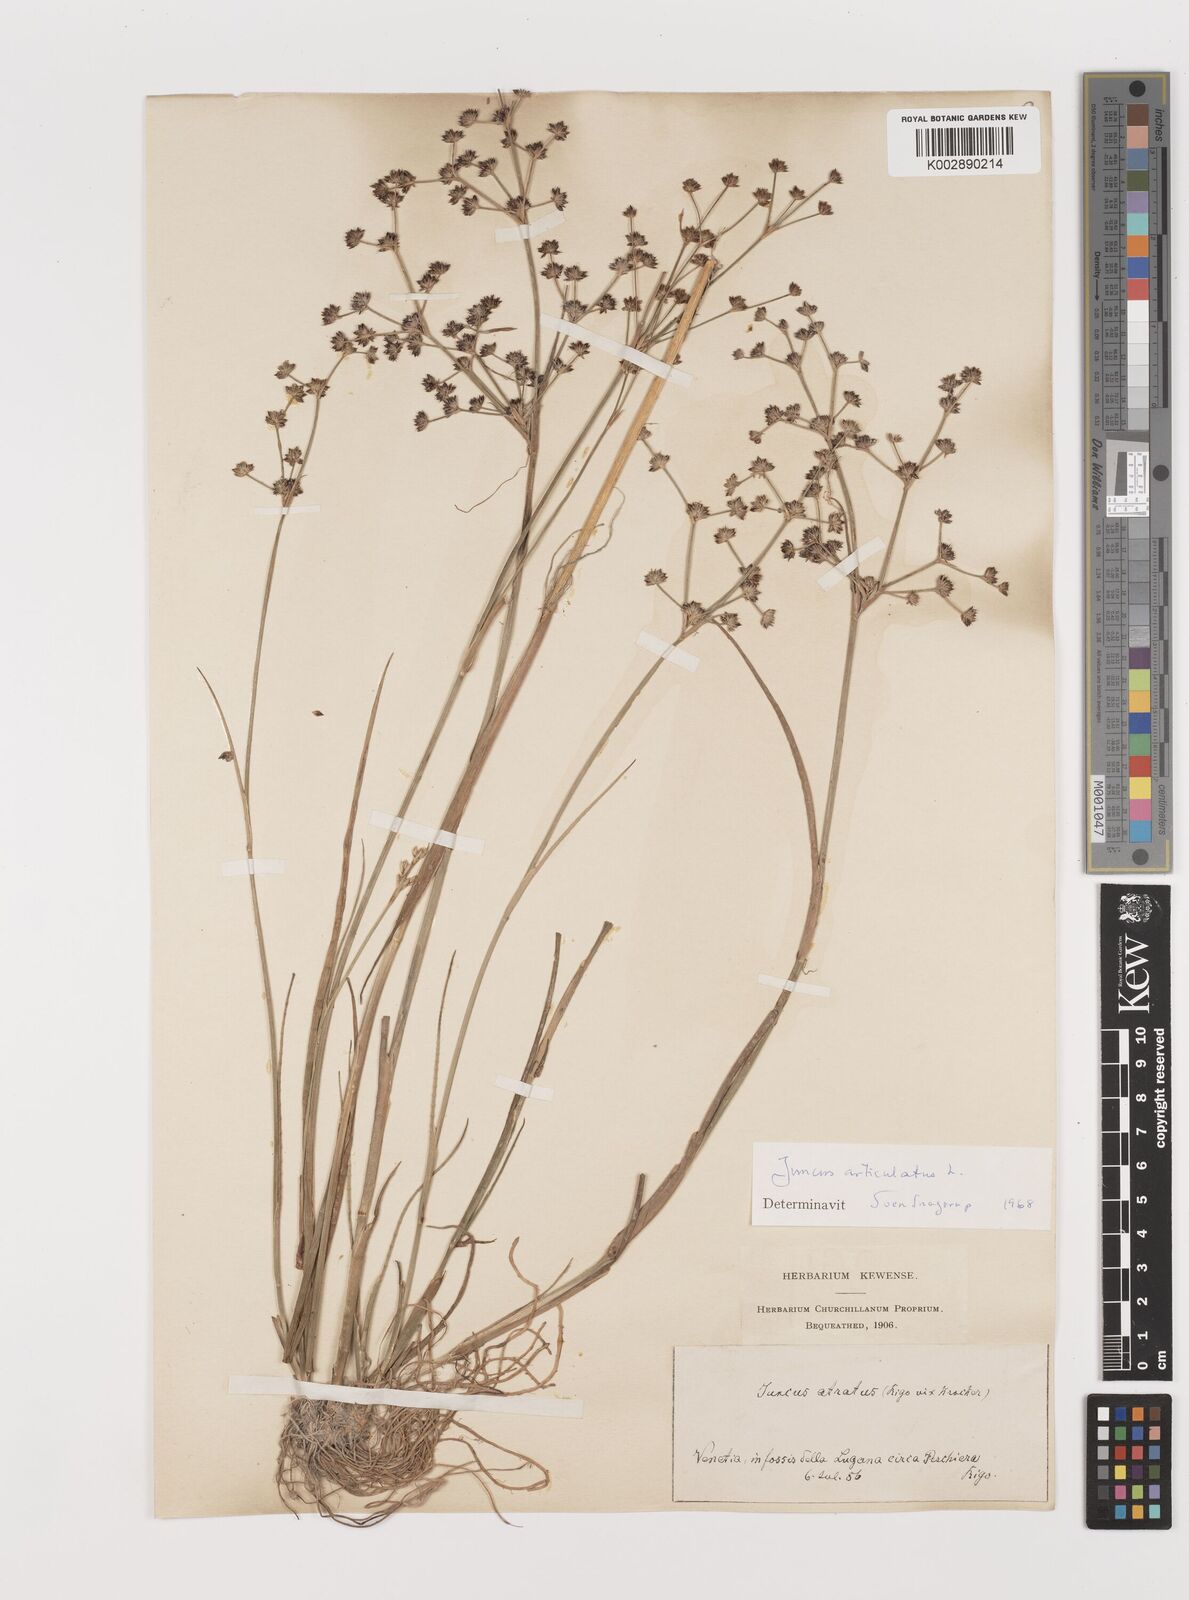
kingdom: Plantae
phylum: Tracheophyta
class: Liliopsida
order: Poales
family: Juncaceae
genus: Juncus
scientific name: Juncus articulatus
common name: Jointed rush
